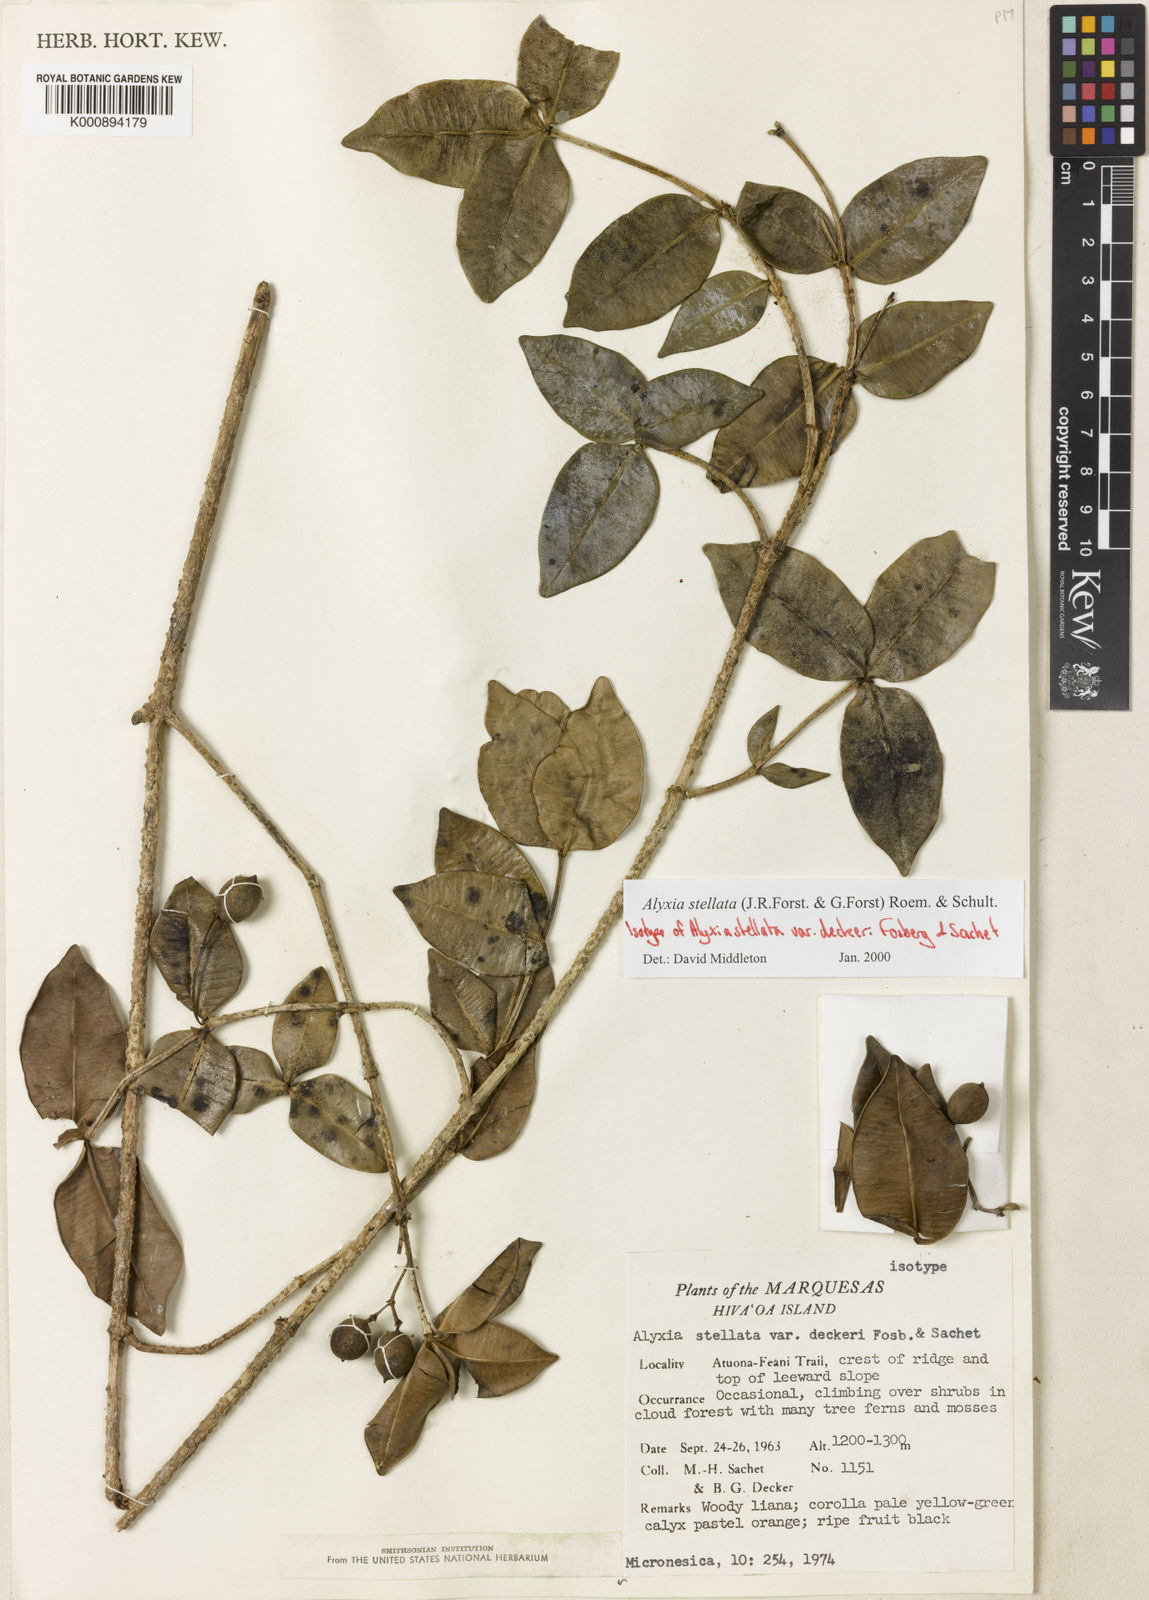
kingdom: Plantae
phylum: Tracheophyta
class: Magnoliopsida
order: Gentianales
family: Apocynaceae
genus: Alyxia
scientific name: Alyxia stellata
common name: Maile
